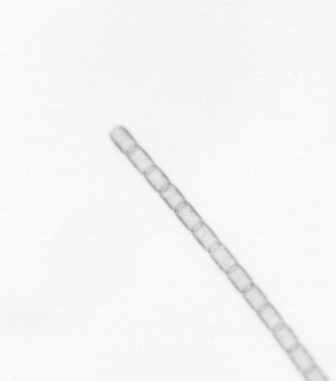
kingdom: Chromista
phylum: Ochrophyta
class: Bacillariophyceae
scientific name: Bacillariophyceae
